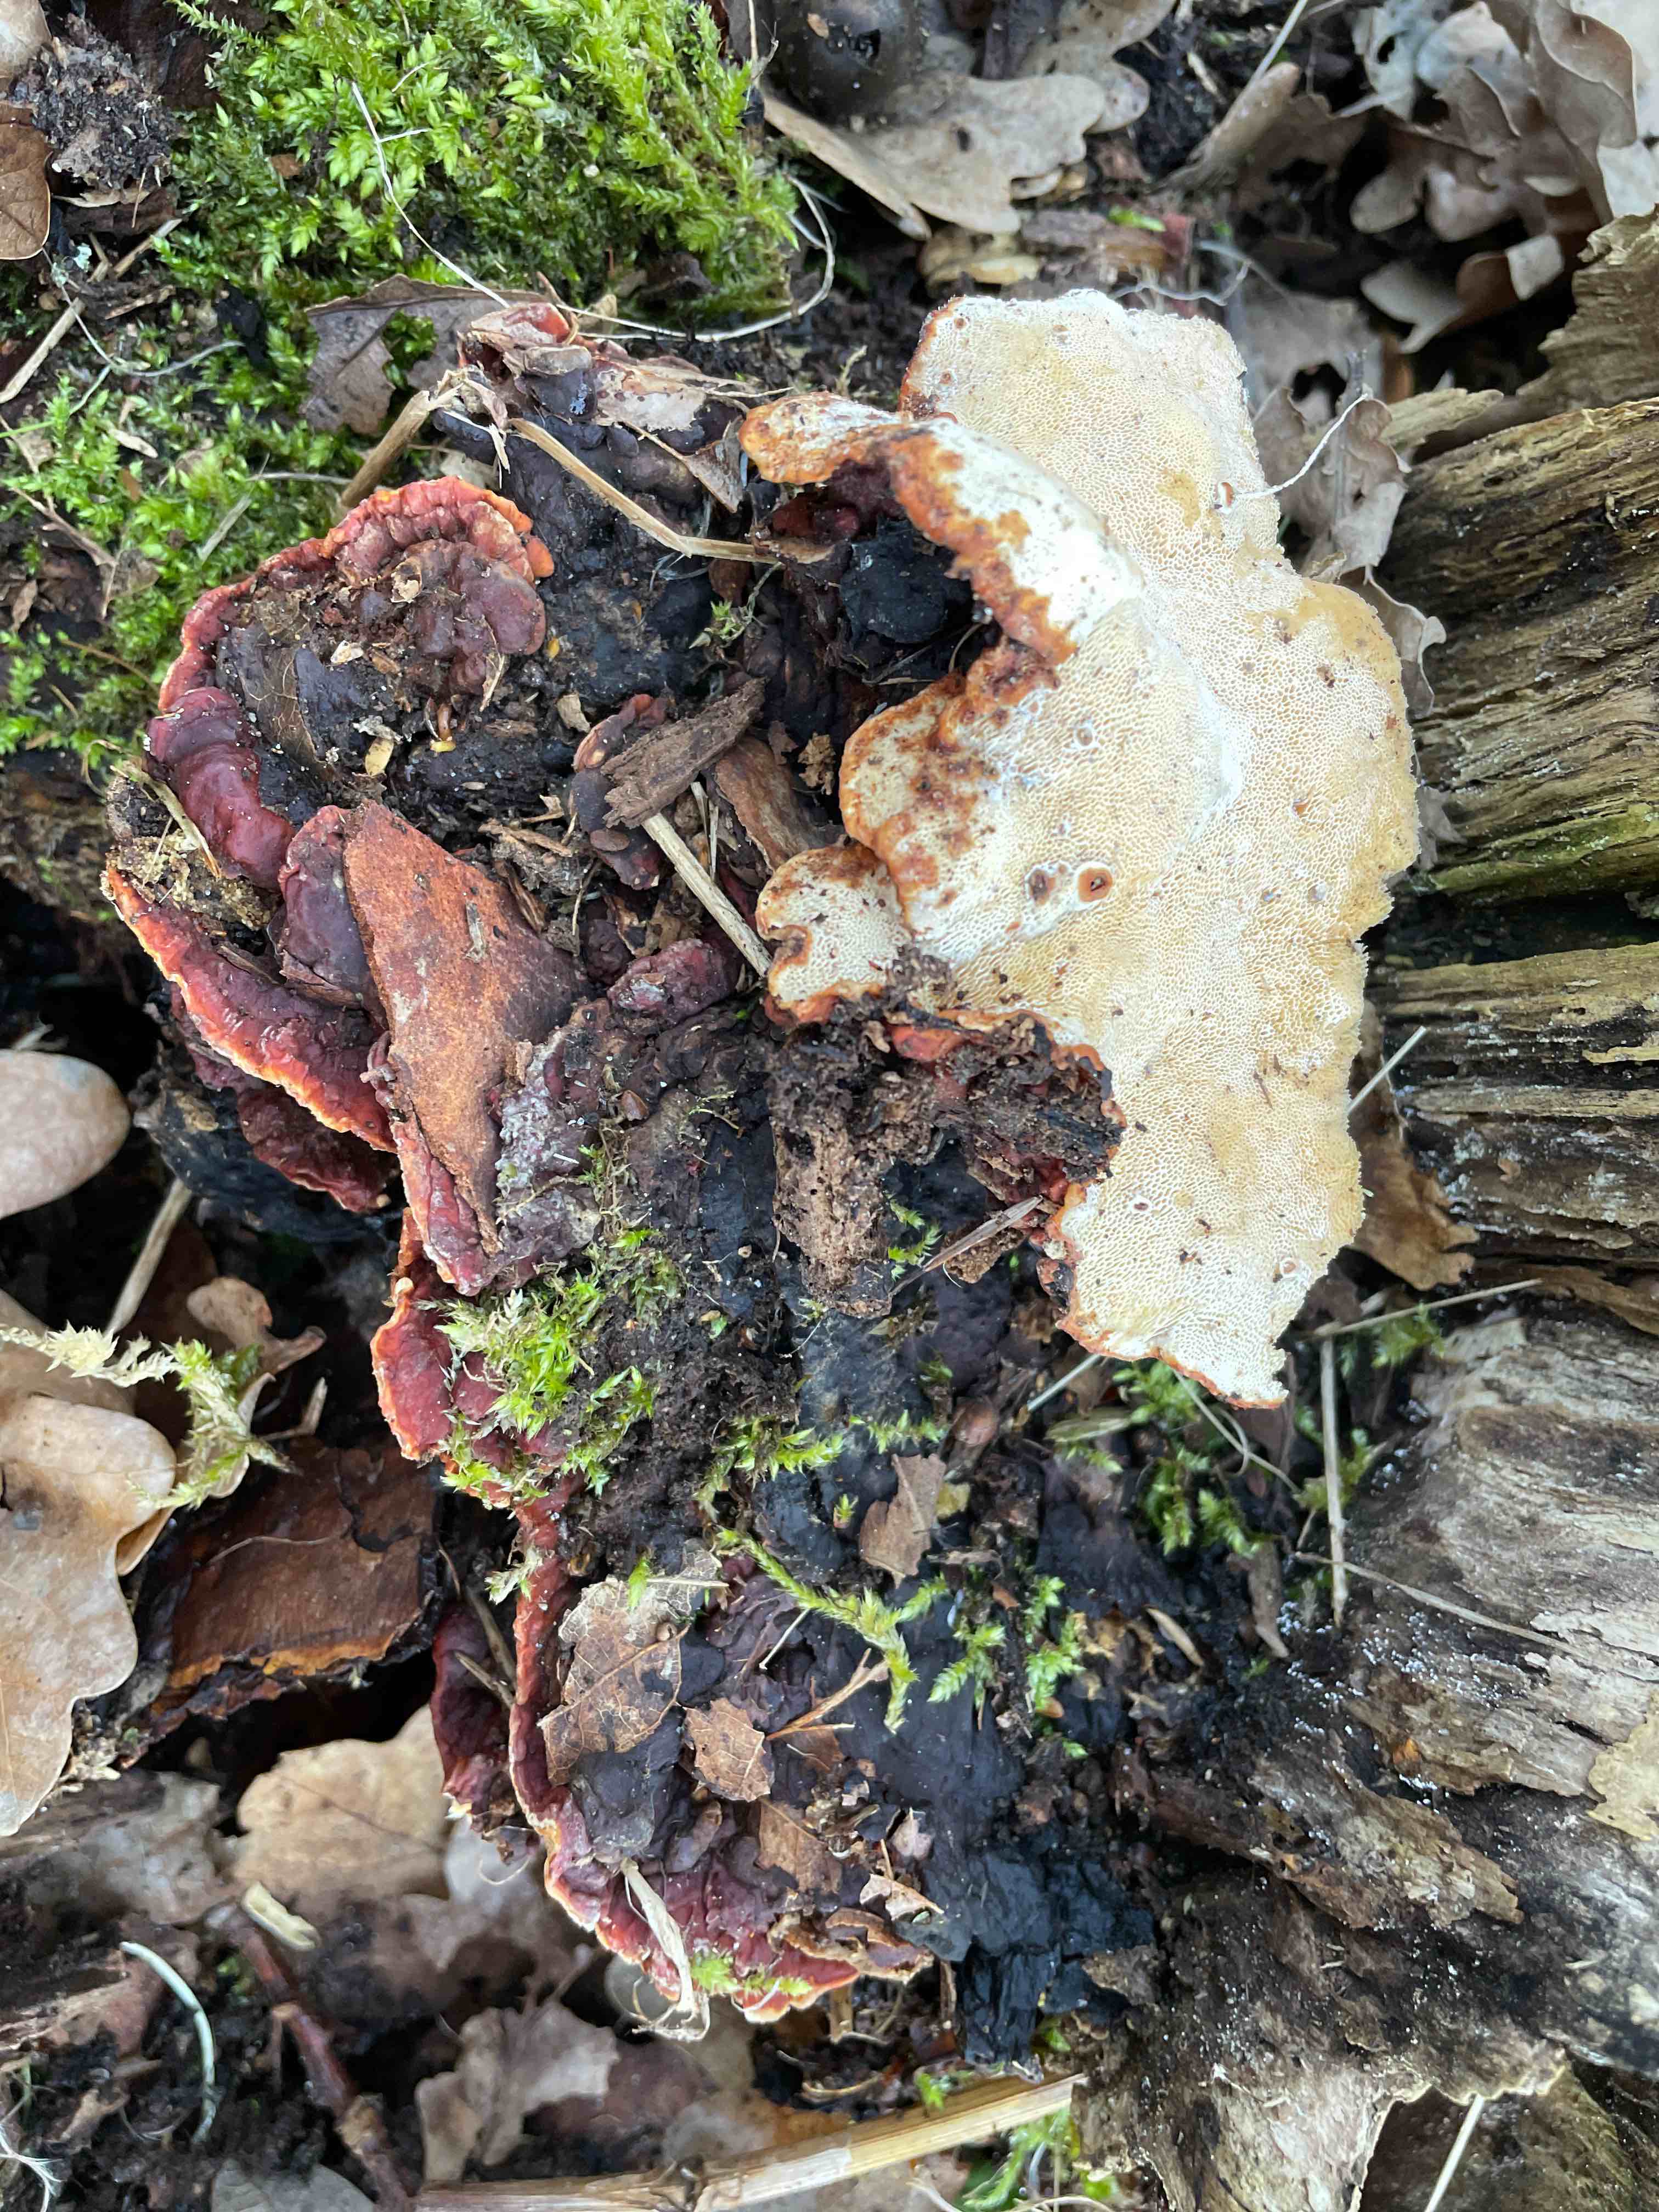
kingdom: Fungi
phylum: Basidiomycota
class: Agaricomycetes
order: Russulales
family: Bondarzewiaceae
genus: Heterobasidion
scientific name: Heterobasidion annosum
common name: almindelig rodfordærver
